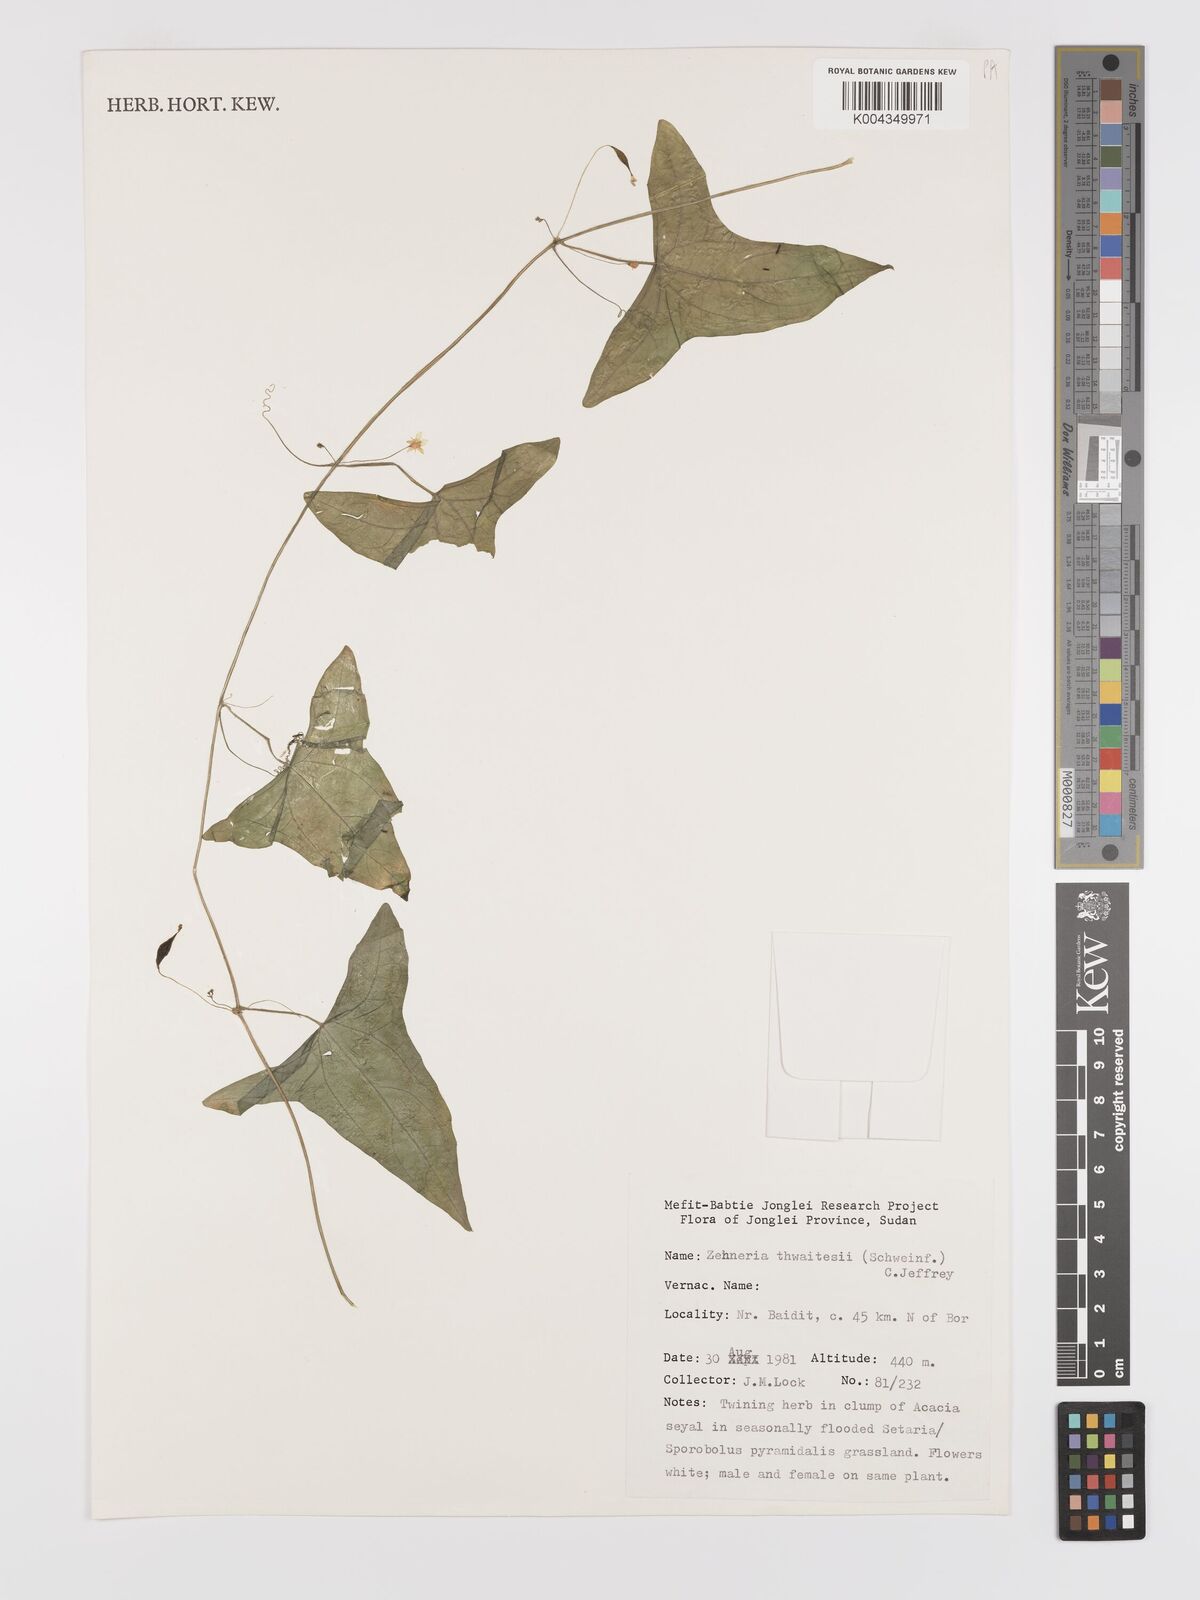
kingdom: Plantae
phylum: Tracheophyta
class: Magnoliopsida
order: Cucurbitales
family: Cucurbitaceae
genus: Zehneria
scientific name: Zehneria peneyana
